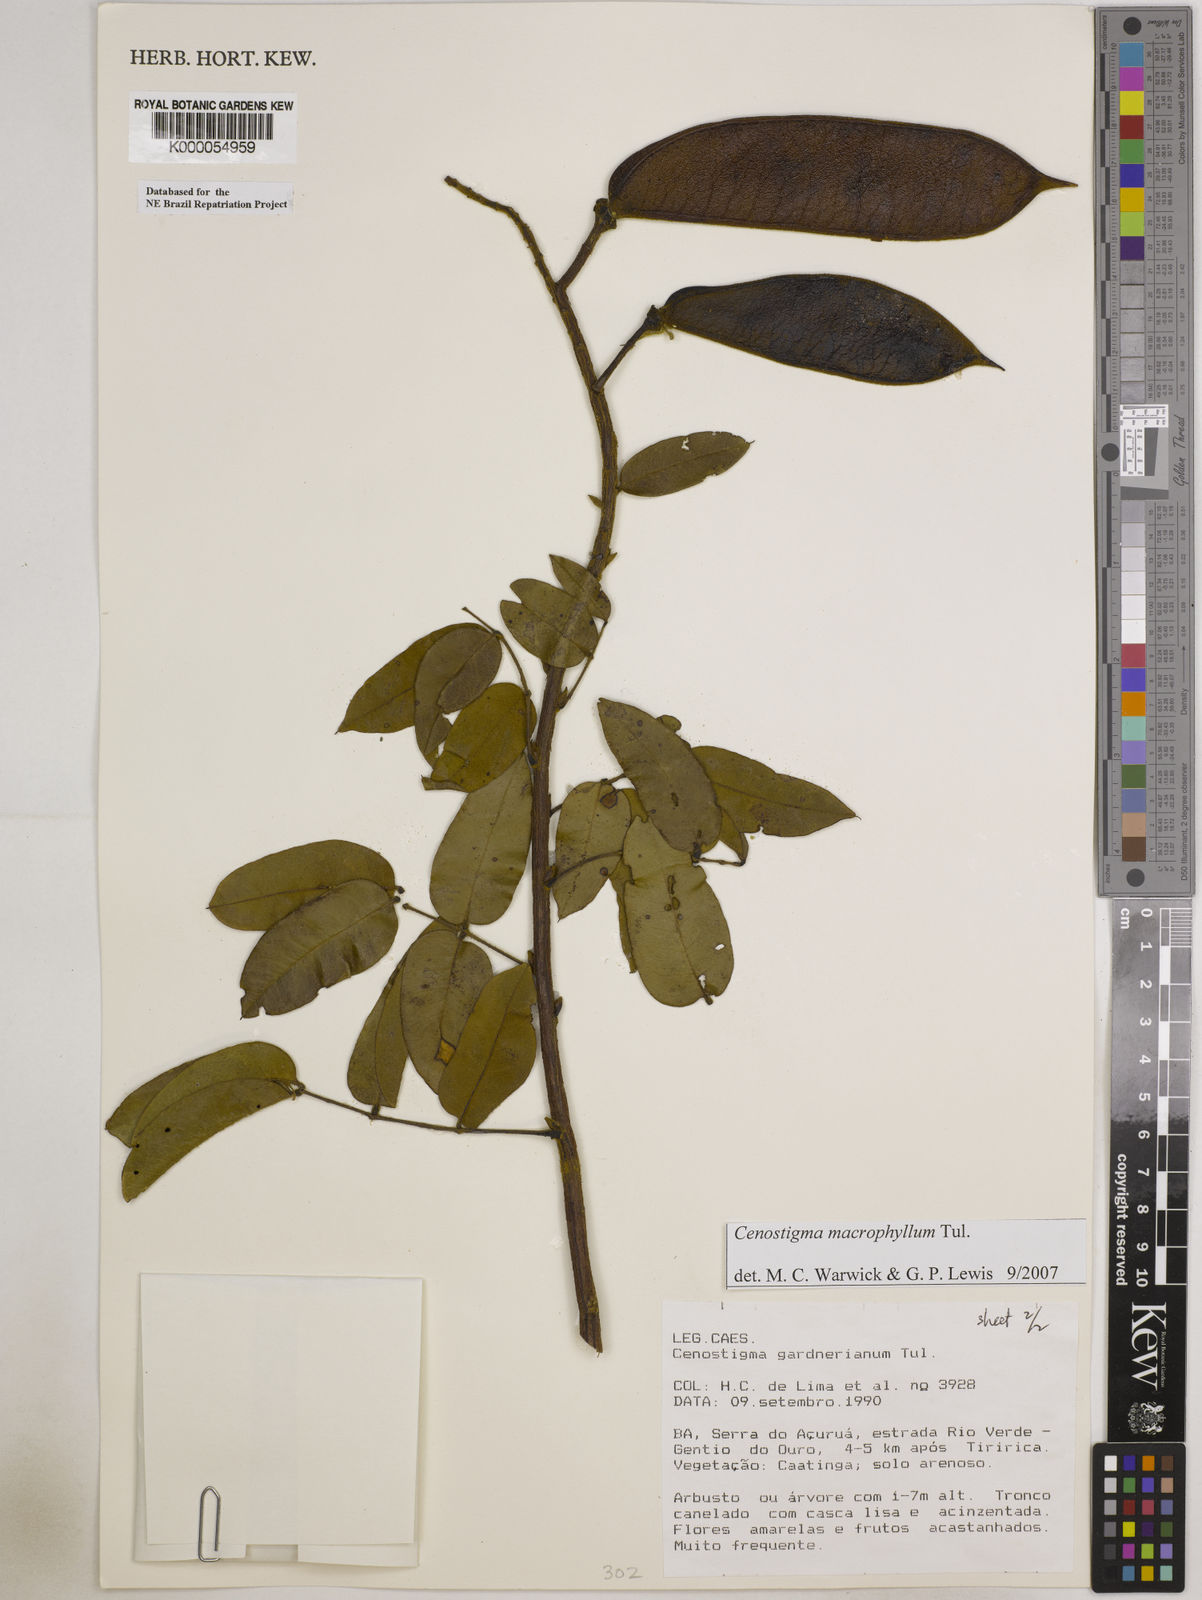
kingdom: Plantae
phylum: Tracheophyta
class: Magnoliopsida
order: Fabales
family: Fabaceae
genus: Cenostigma
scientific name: Cenostigma macrophyllum
